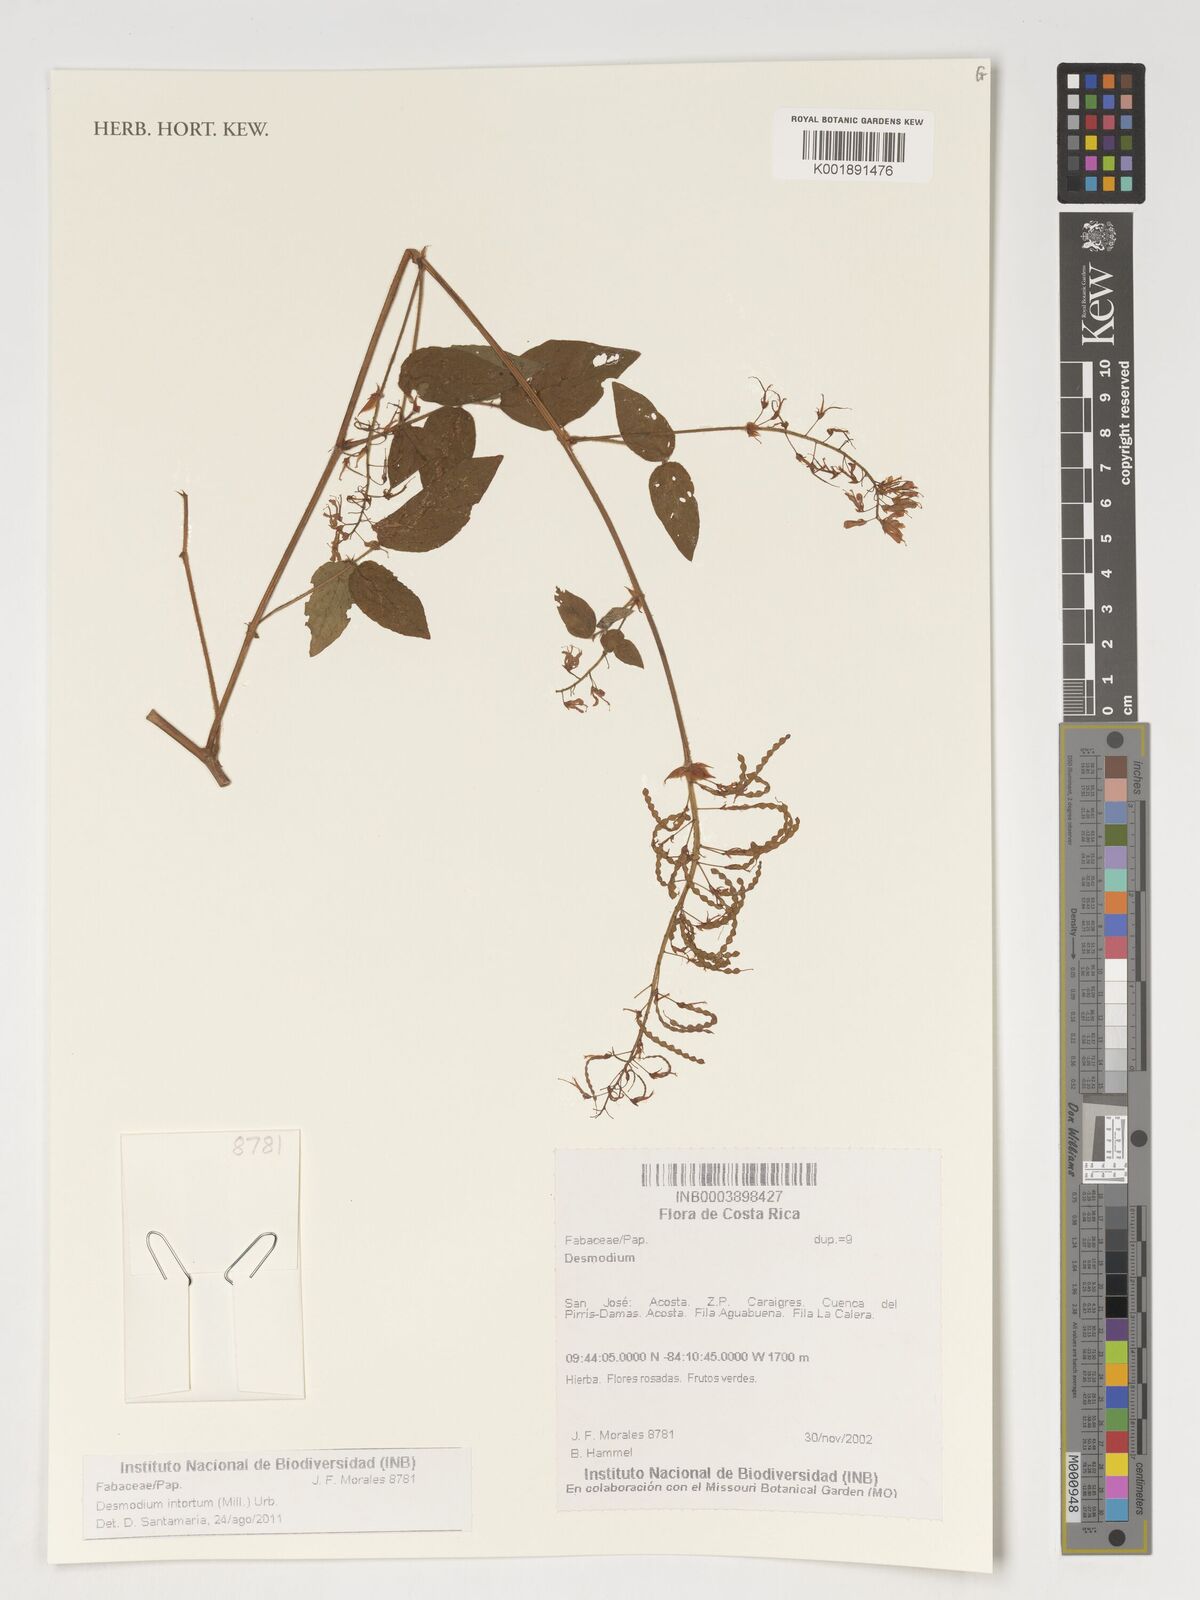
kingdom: Plantae
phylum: Tracheophyta
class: Magnoliopsida
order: Fabales
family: Fabaceae
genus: Desmodium
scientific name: Desmodium intortum
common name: Greenleaf ticktrefoil
